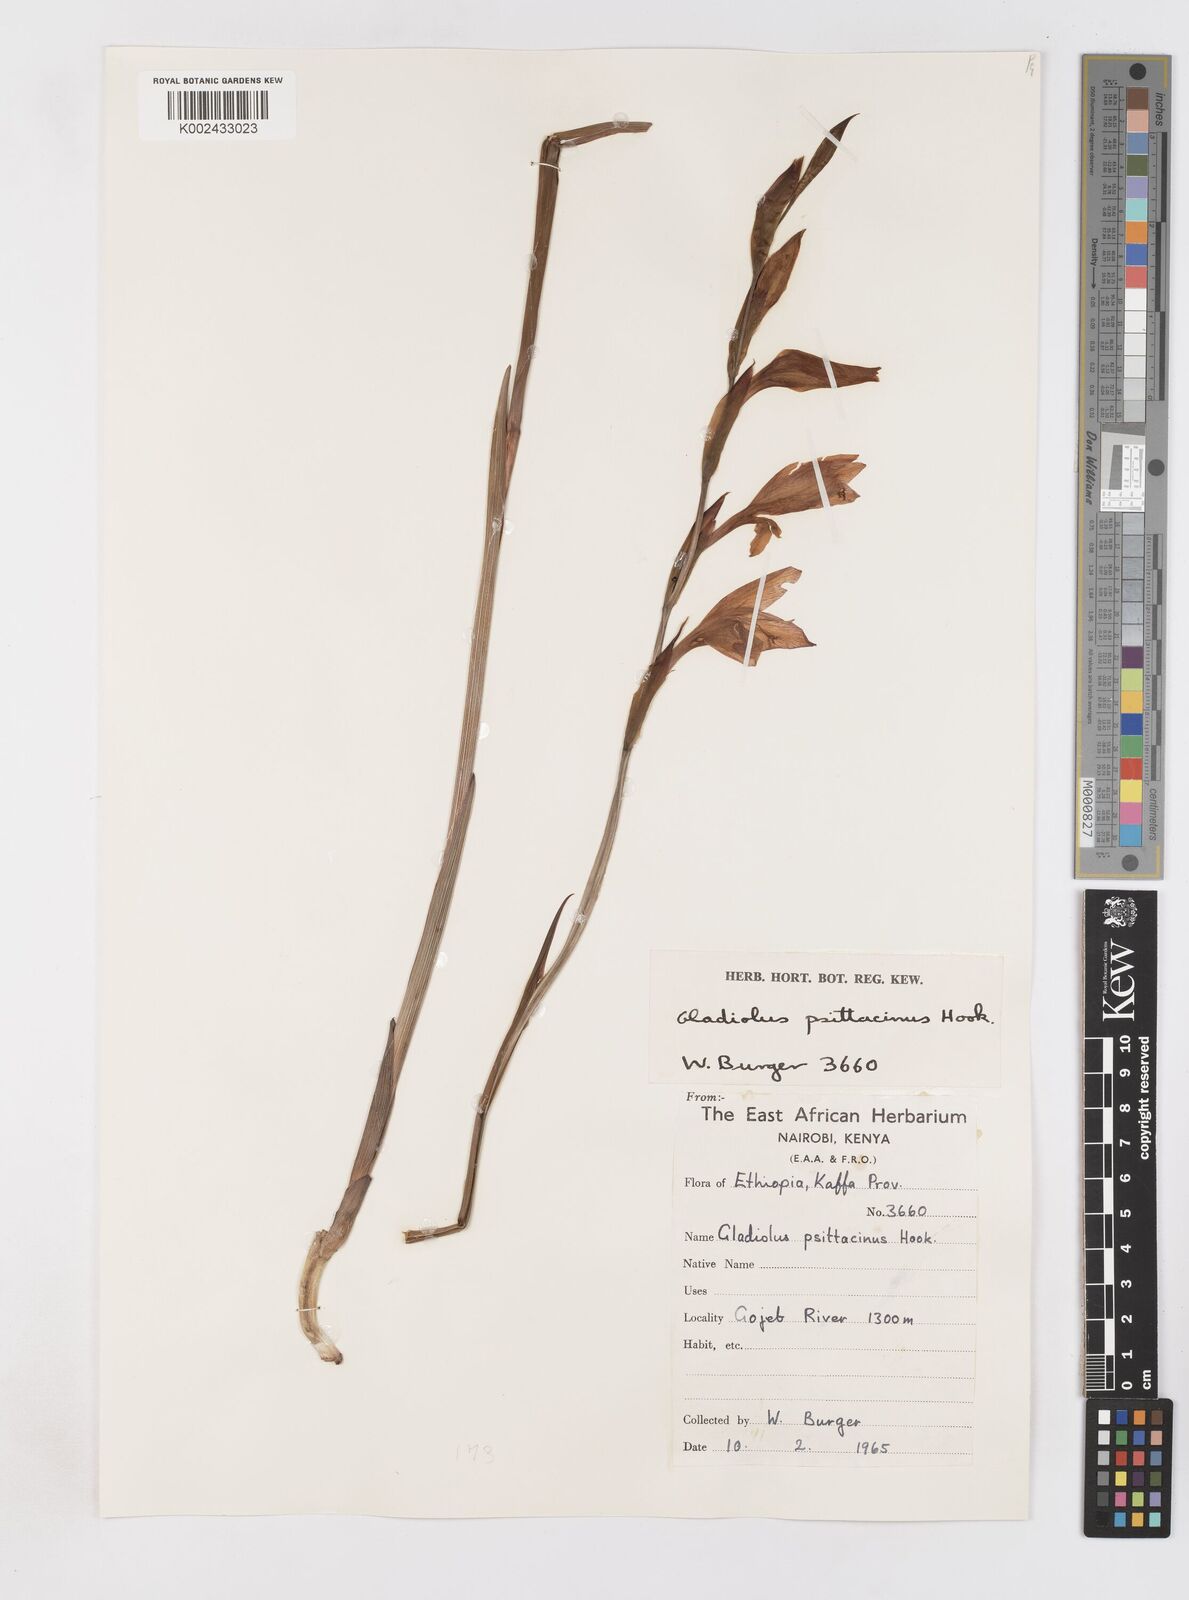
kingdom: Plantae
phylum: Tracheophyta
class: Liliopsida
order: Asparagales
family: Iridaceae
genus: Gladiolus
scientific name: Gladiolus dalenii
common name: Cornflag
